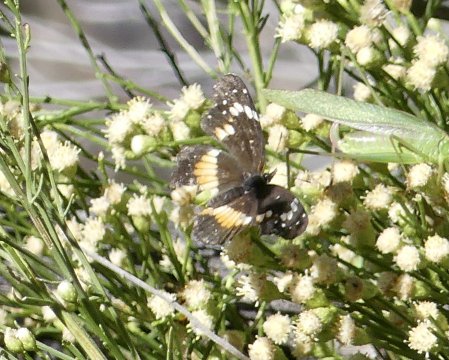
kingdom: Animalia
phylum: Arthropoda
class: Insecta
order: Lepidoptera
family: Nymphalidae
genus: Chlosyne
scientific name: Chlosyne lacinia
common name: Bordered Patch
